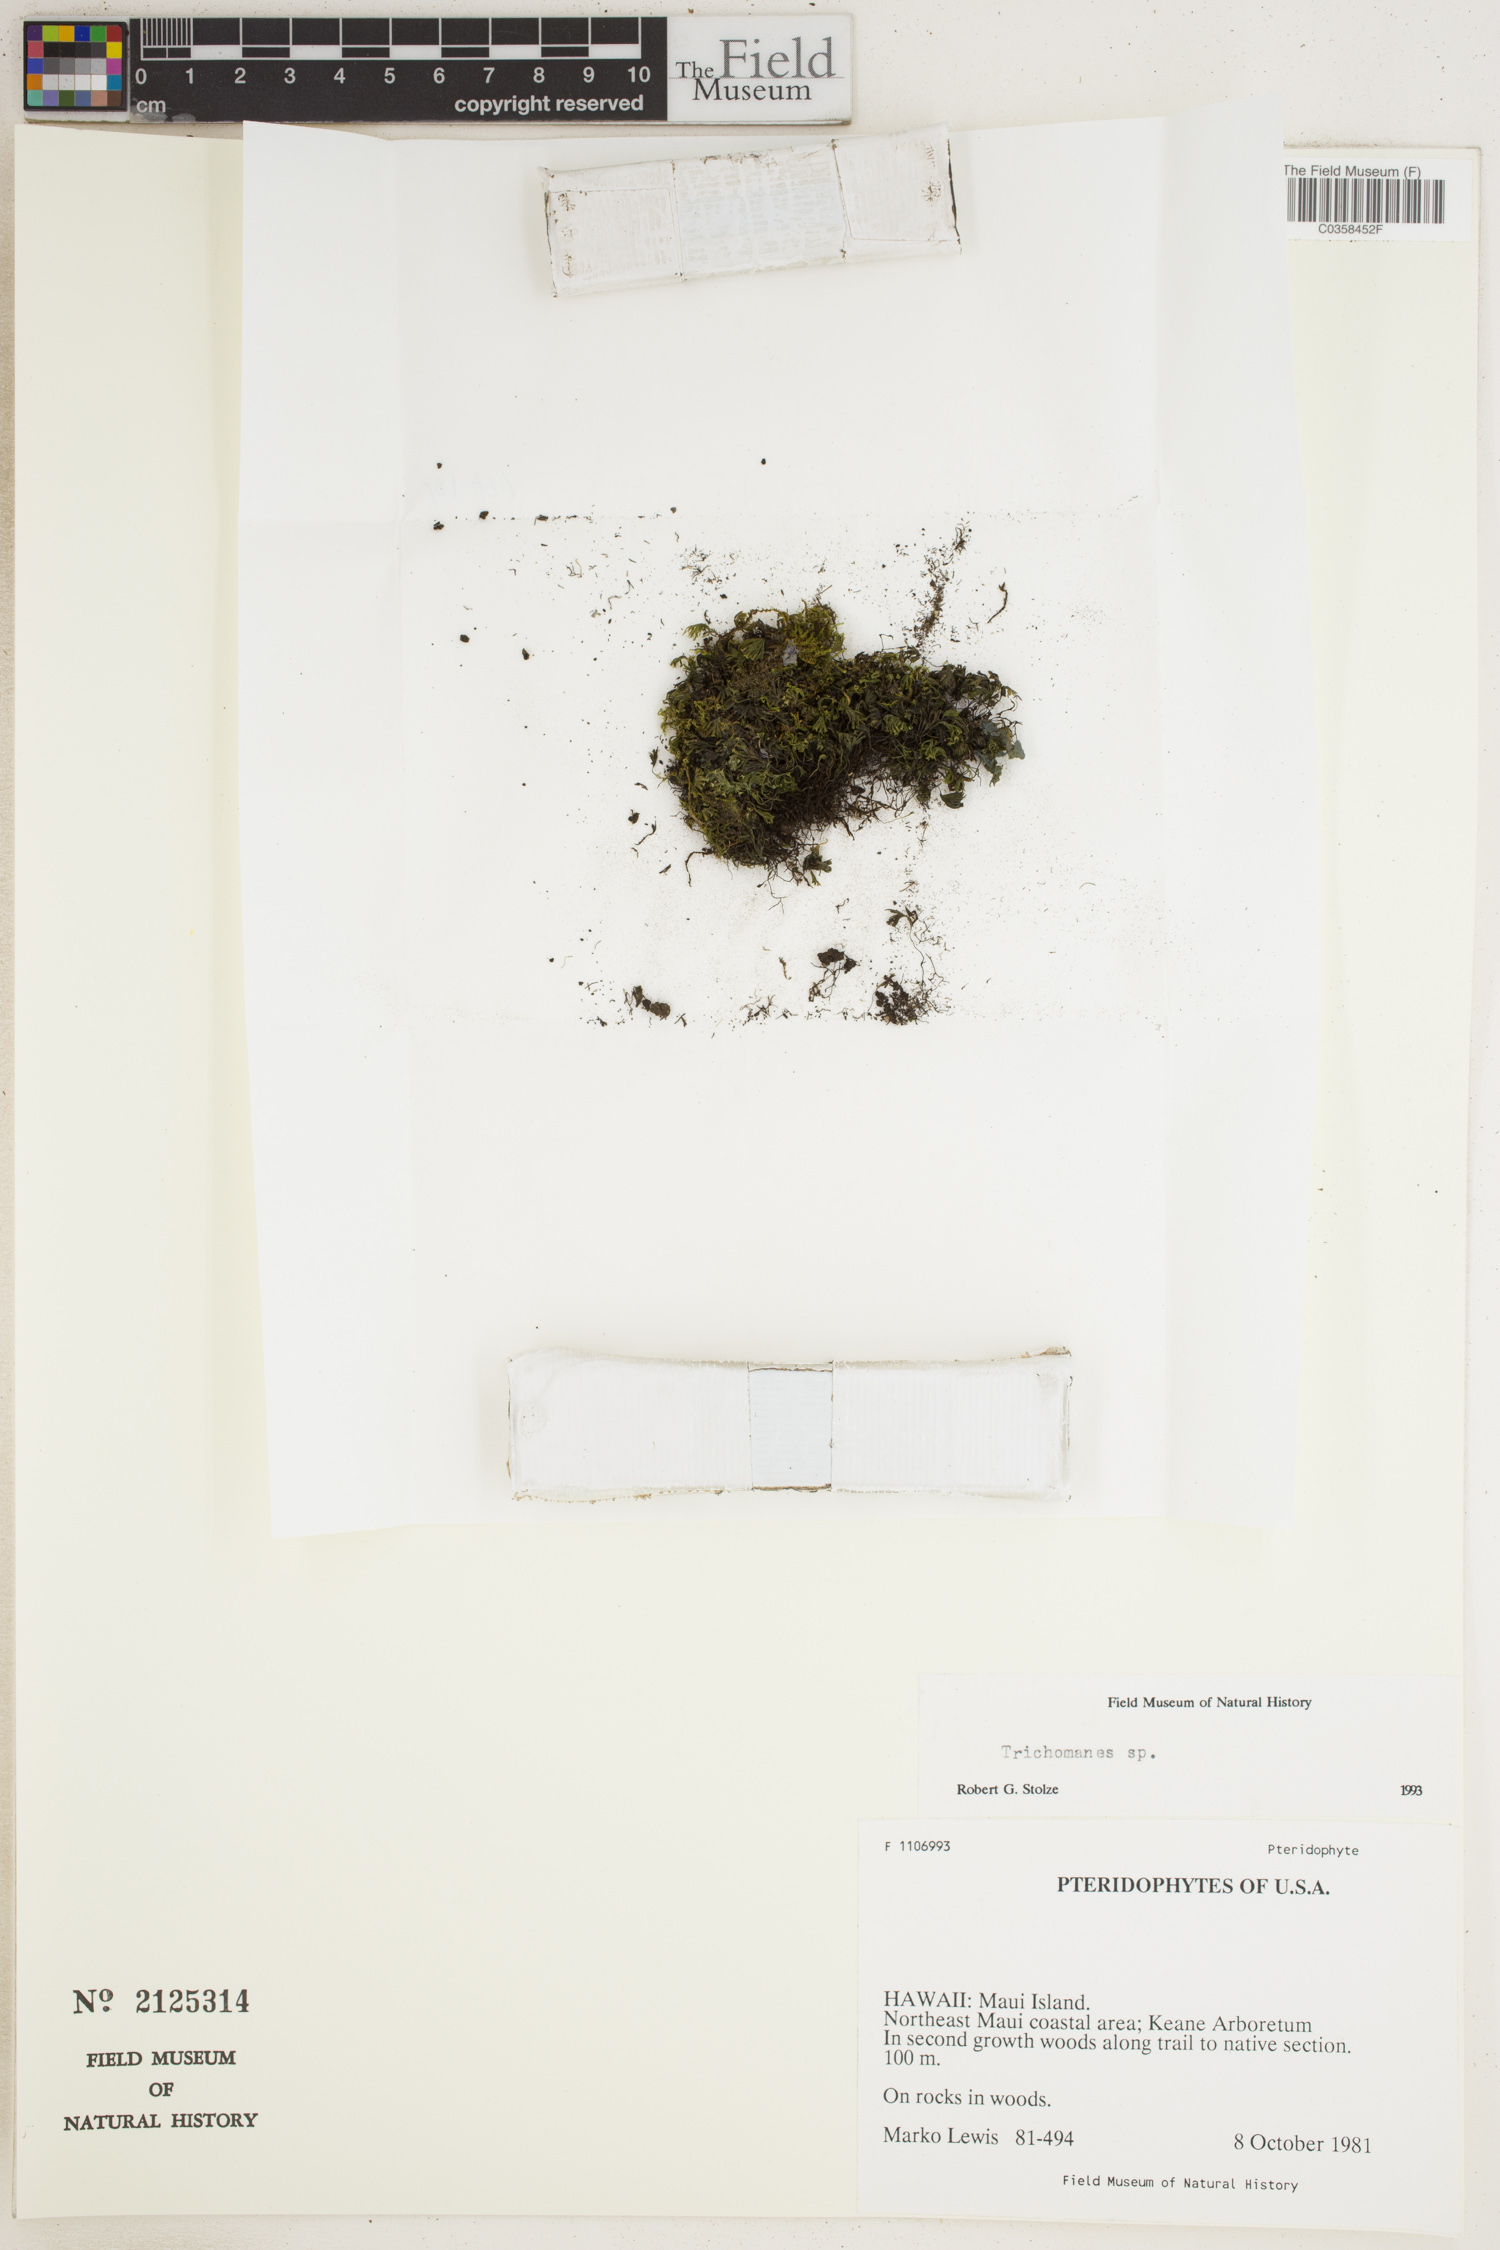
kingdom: Plantae
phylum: Tracheophyta
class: Polypodiopsida
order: Hymenophyllales
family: Hymenophyllaceae
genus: Trichomanes
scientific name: Trichomanes
